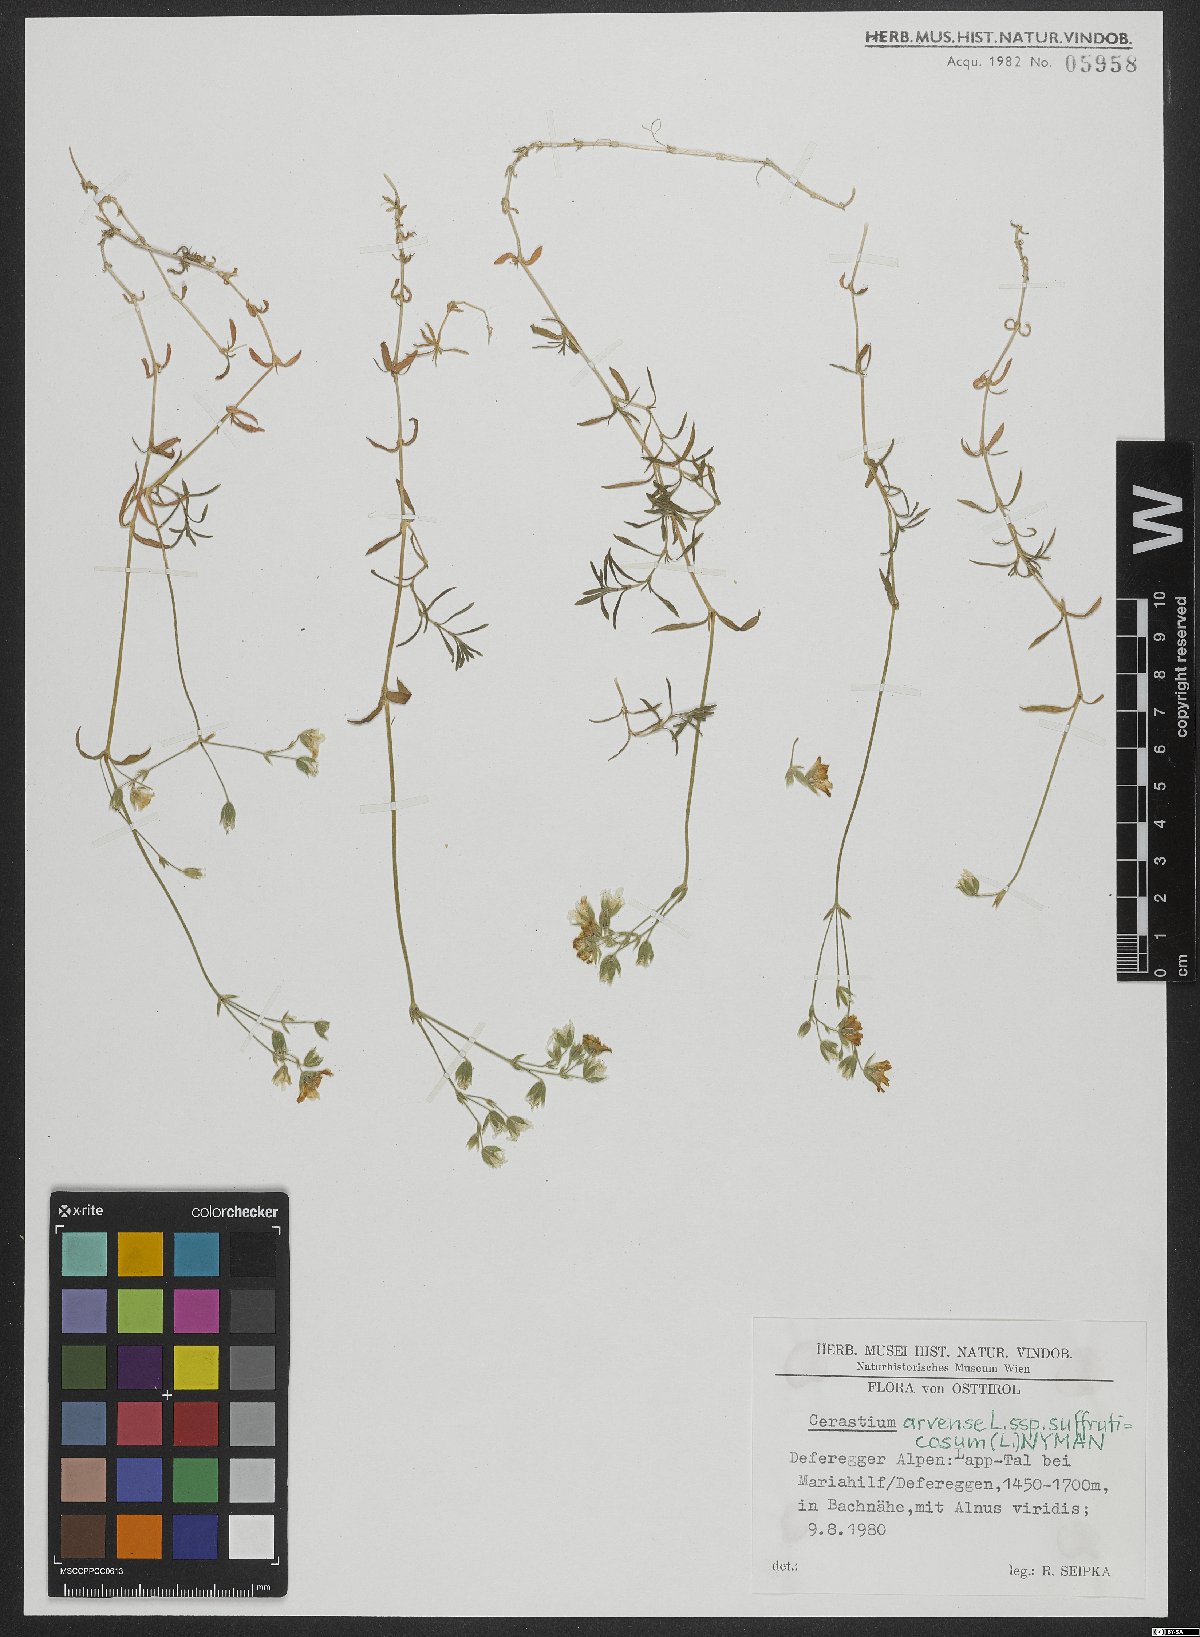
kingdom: Plantae
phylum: Tracheophyta
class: Magnoliopsida
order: Caryophyllales
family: Caryophyllaceae
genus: Cerastium
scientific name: Cerastium arvense
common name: Field mouse-ear
